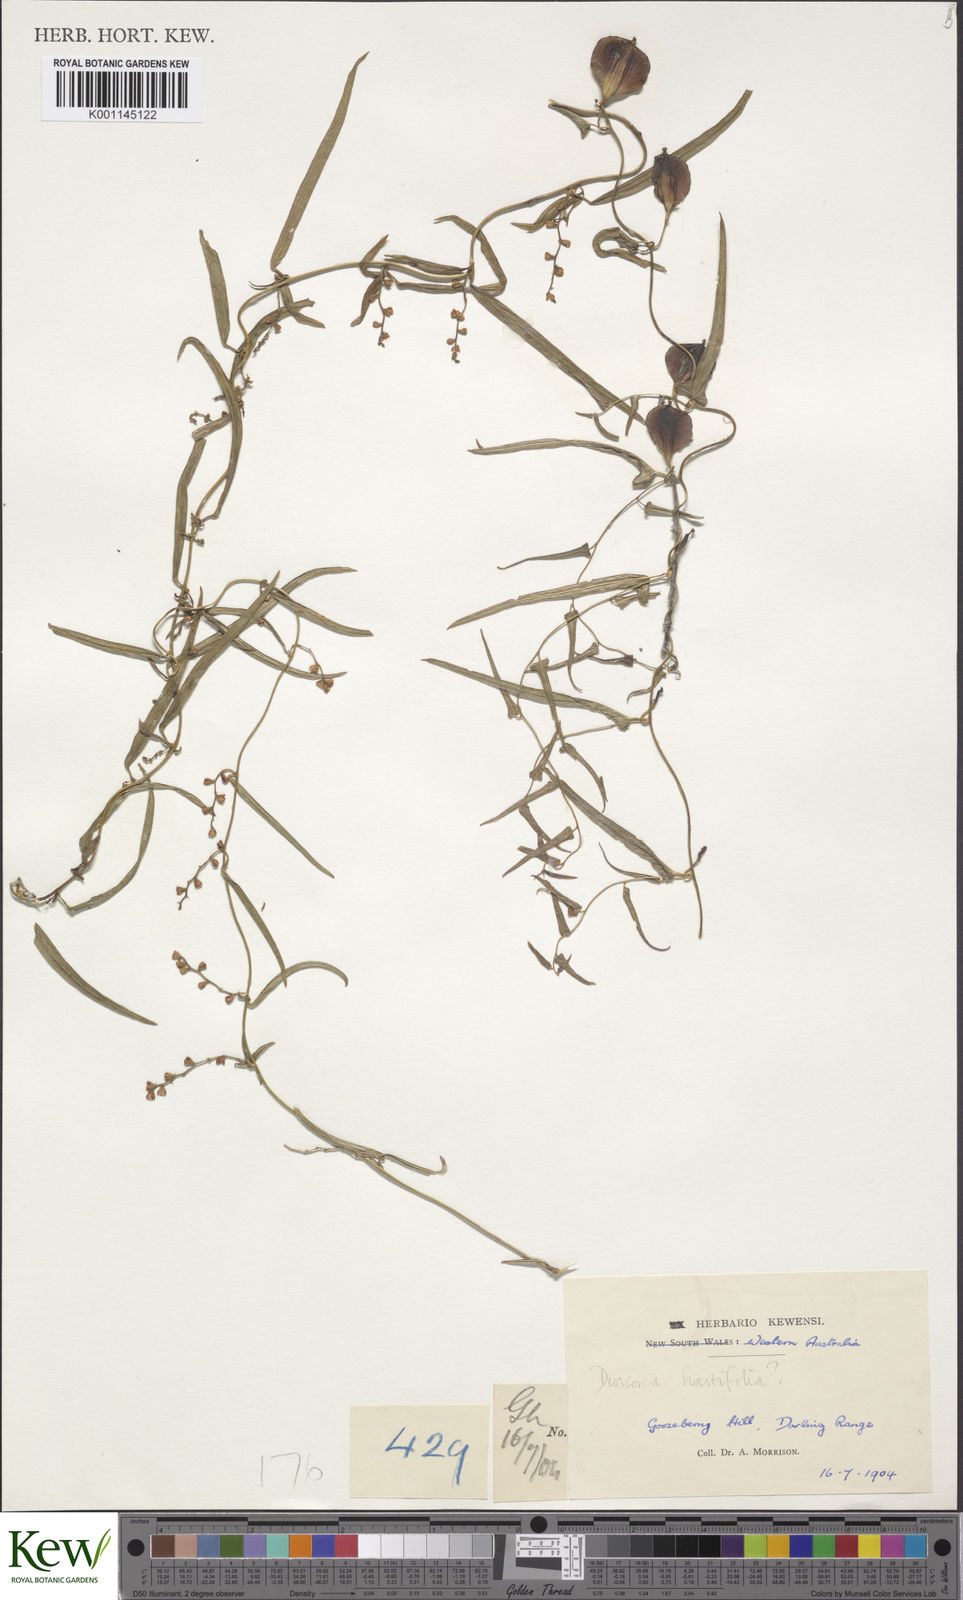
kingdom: Plantae
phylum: Tracheophyta
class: Liliopsida
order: Dioscoreales
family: Dioscoreaceae
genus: Dioscorea
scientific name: Dioscorea hastifolia
